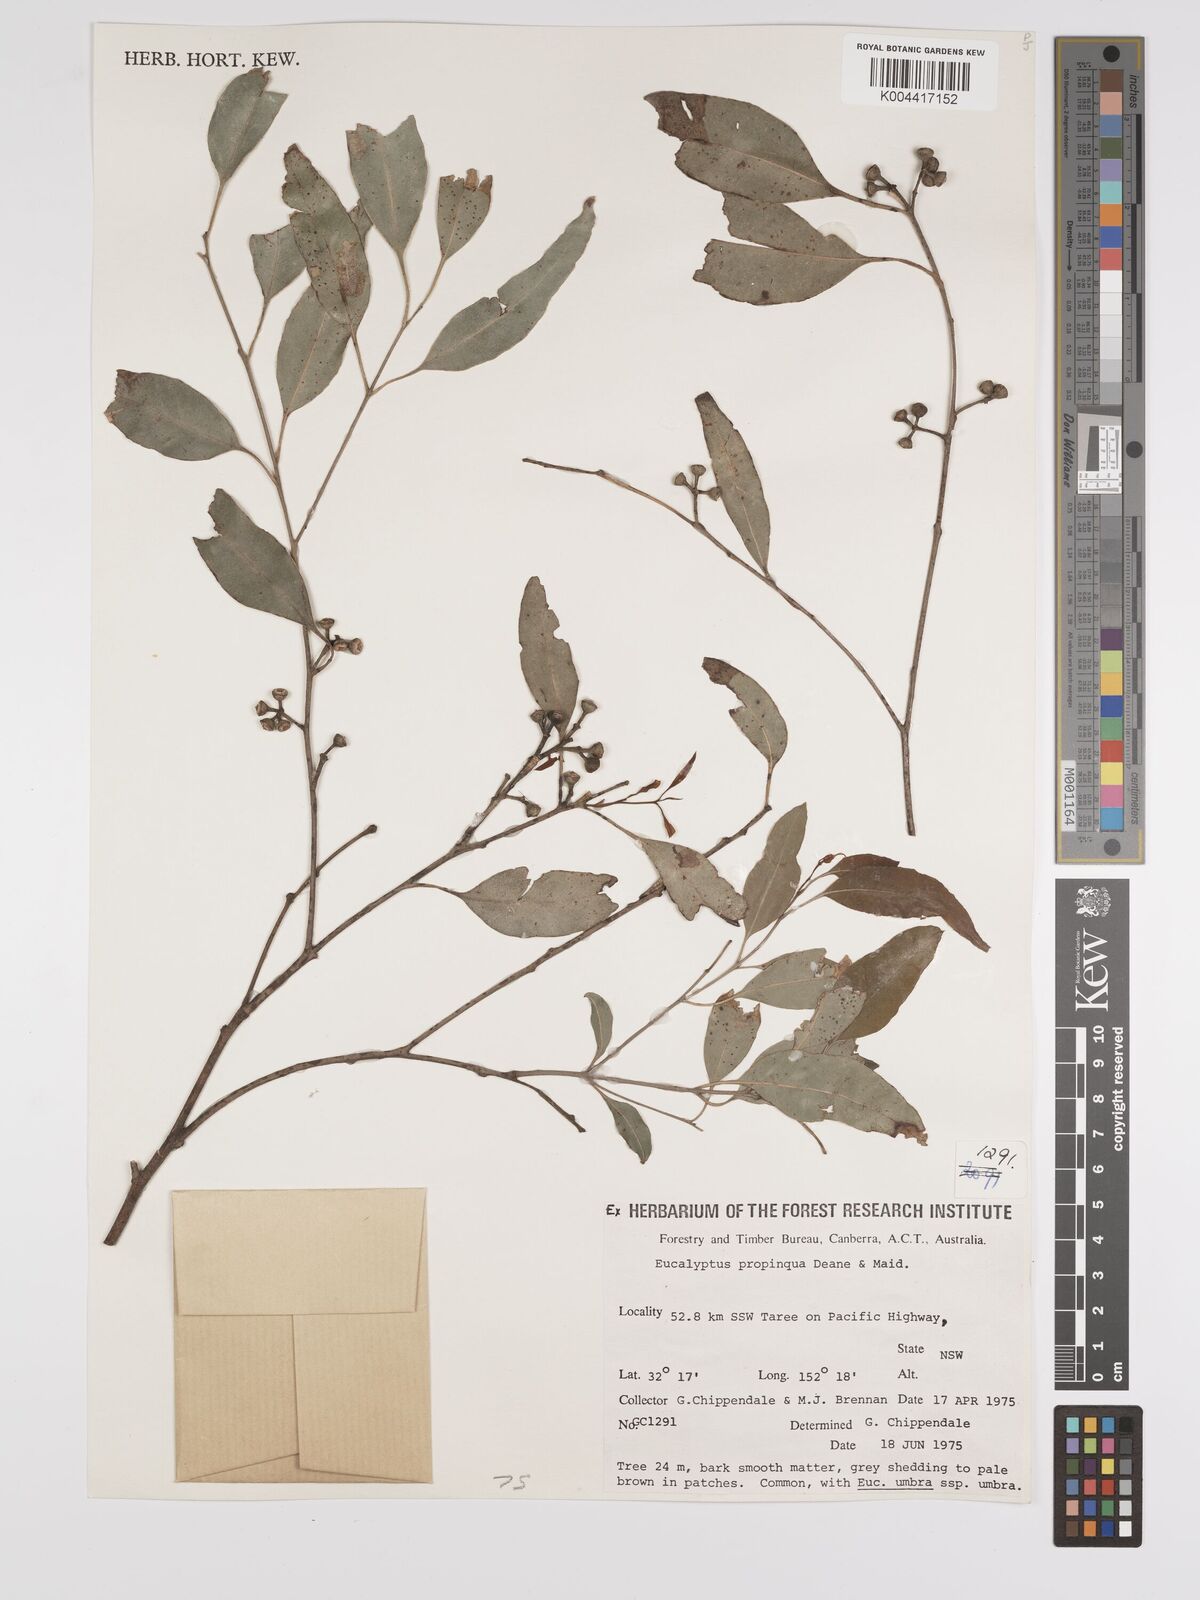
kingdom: Plantae
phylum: Tracheophyta
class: Magnoliopsida
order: Myrtales
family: Myrtaceae
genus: Eucalyptus
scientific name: Eucalyptus propinqua
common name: Grey-gum
